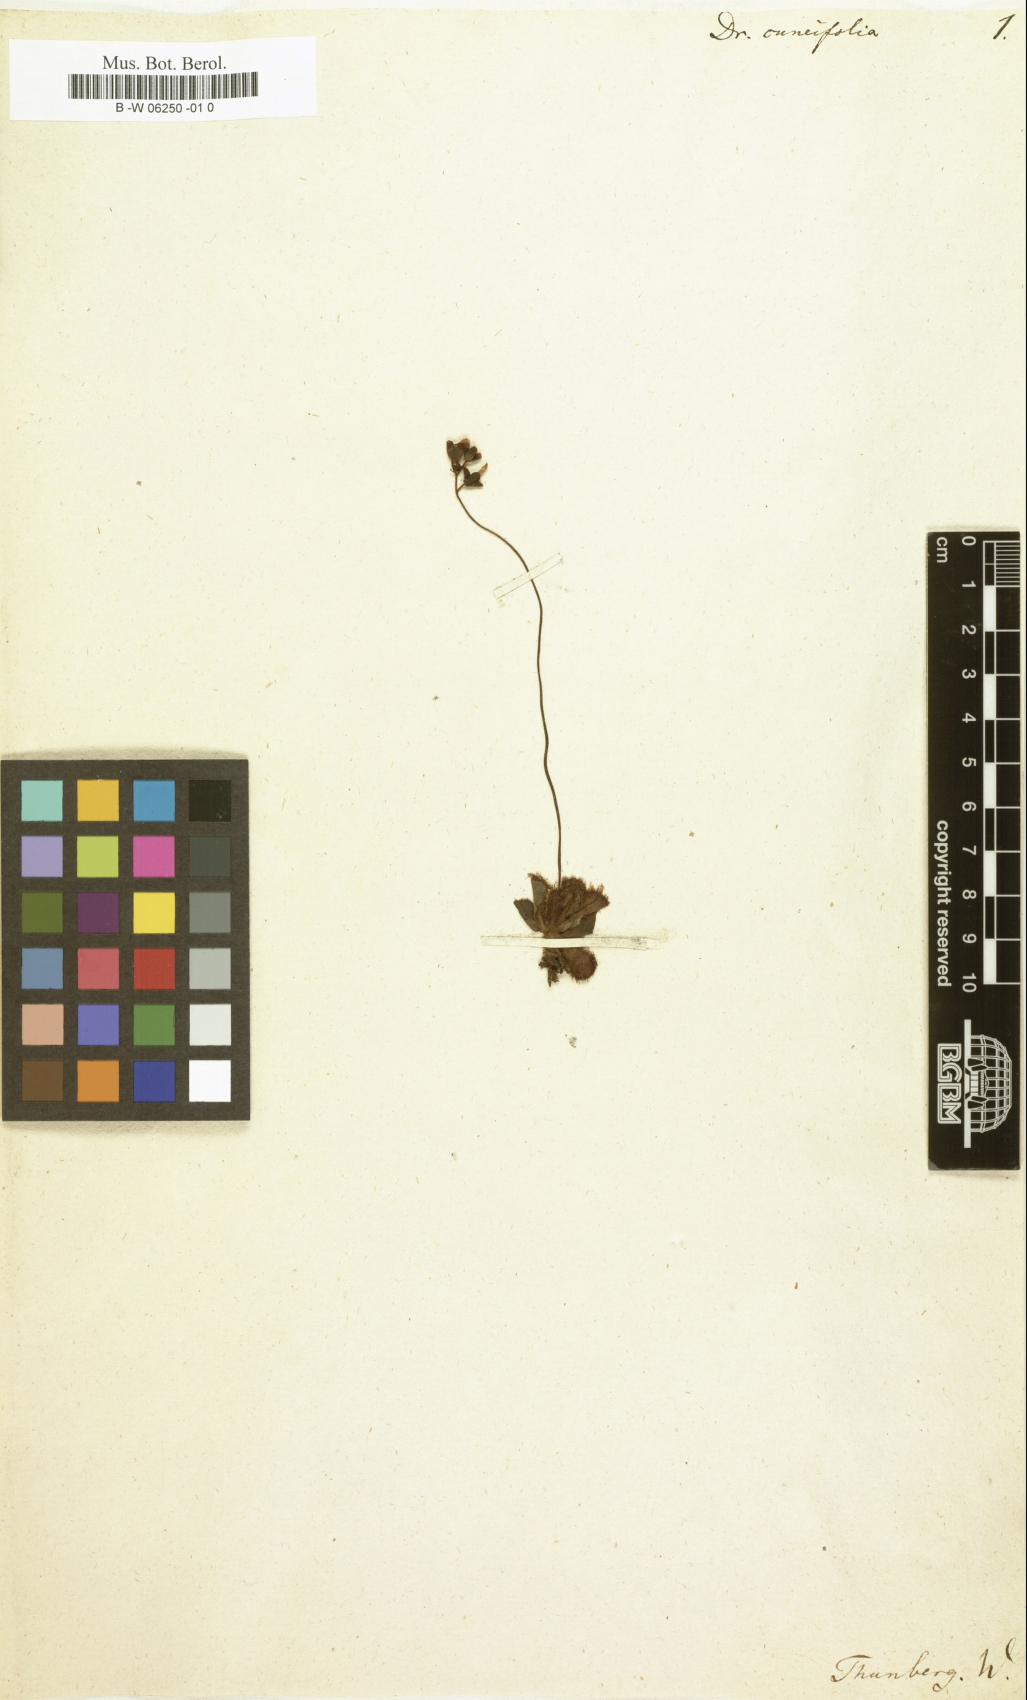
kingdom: Plantae
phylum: Tracheophyta
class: Magnoliopsida
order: Caryophyllales
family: Droseraceae
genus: Drosera
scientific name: Drosera cuneifolia
